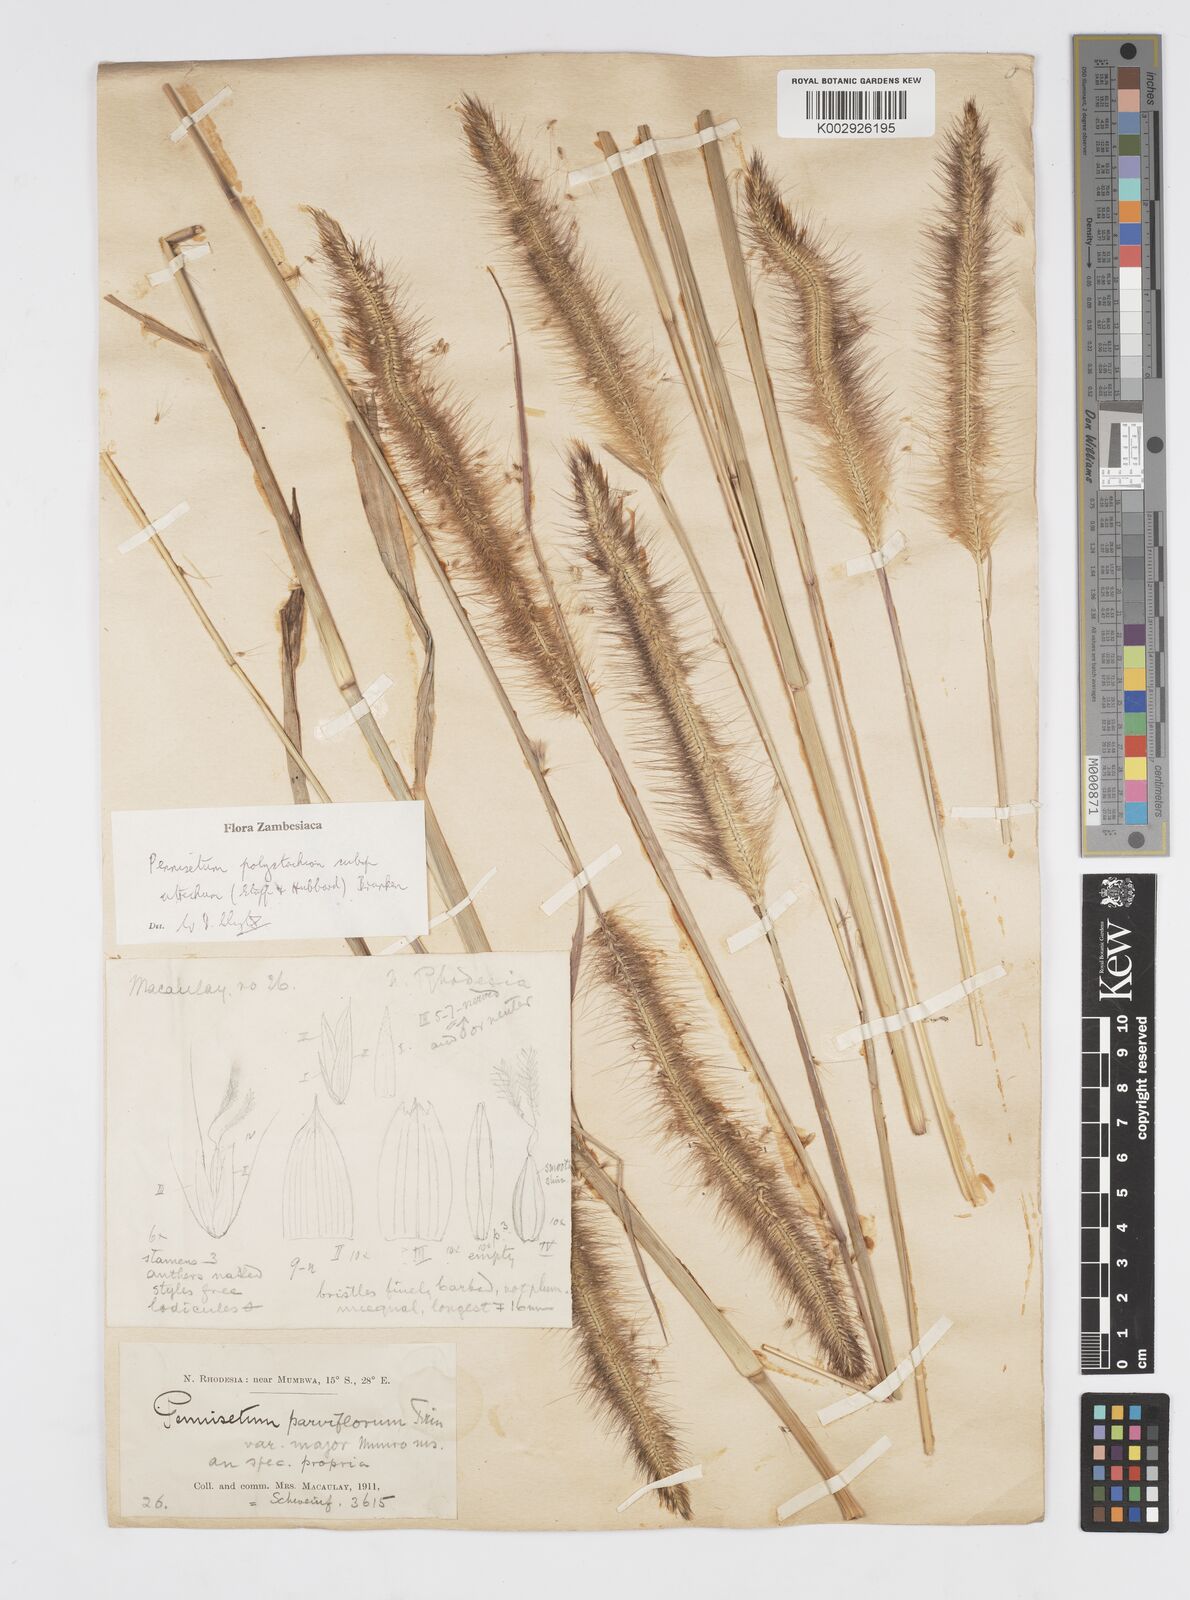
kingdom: Plantae
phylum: Tracheophyta
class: Liliopsida
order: Poales
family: Poaceae
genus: Cenchrus
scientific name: Cenchrus setosus
